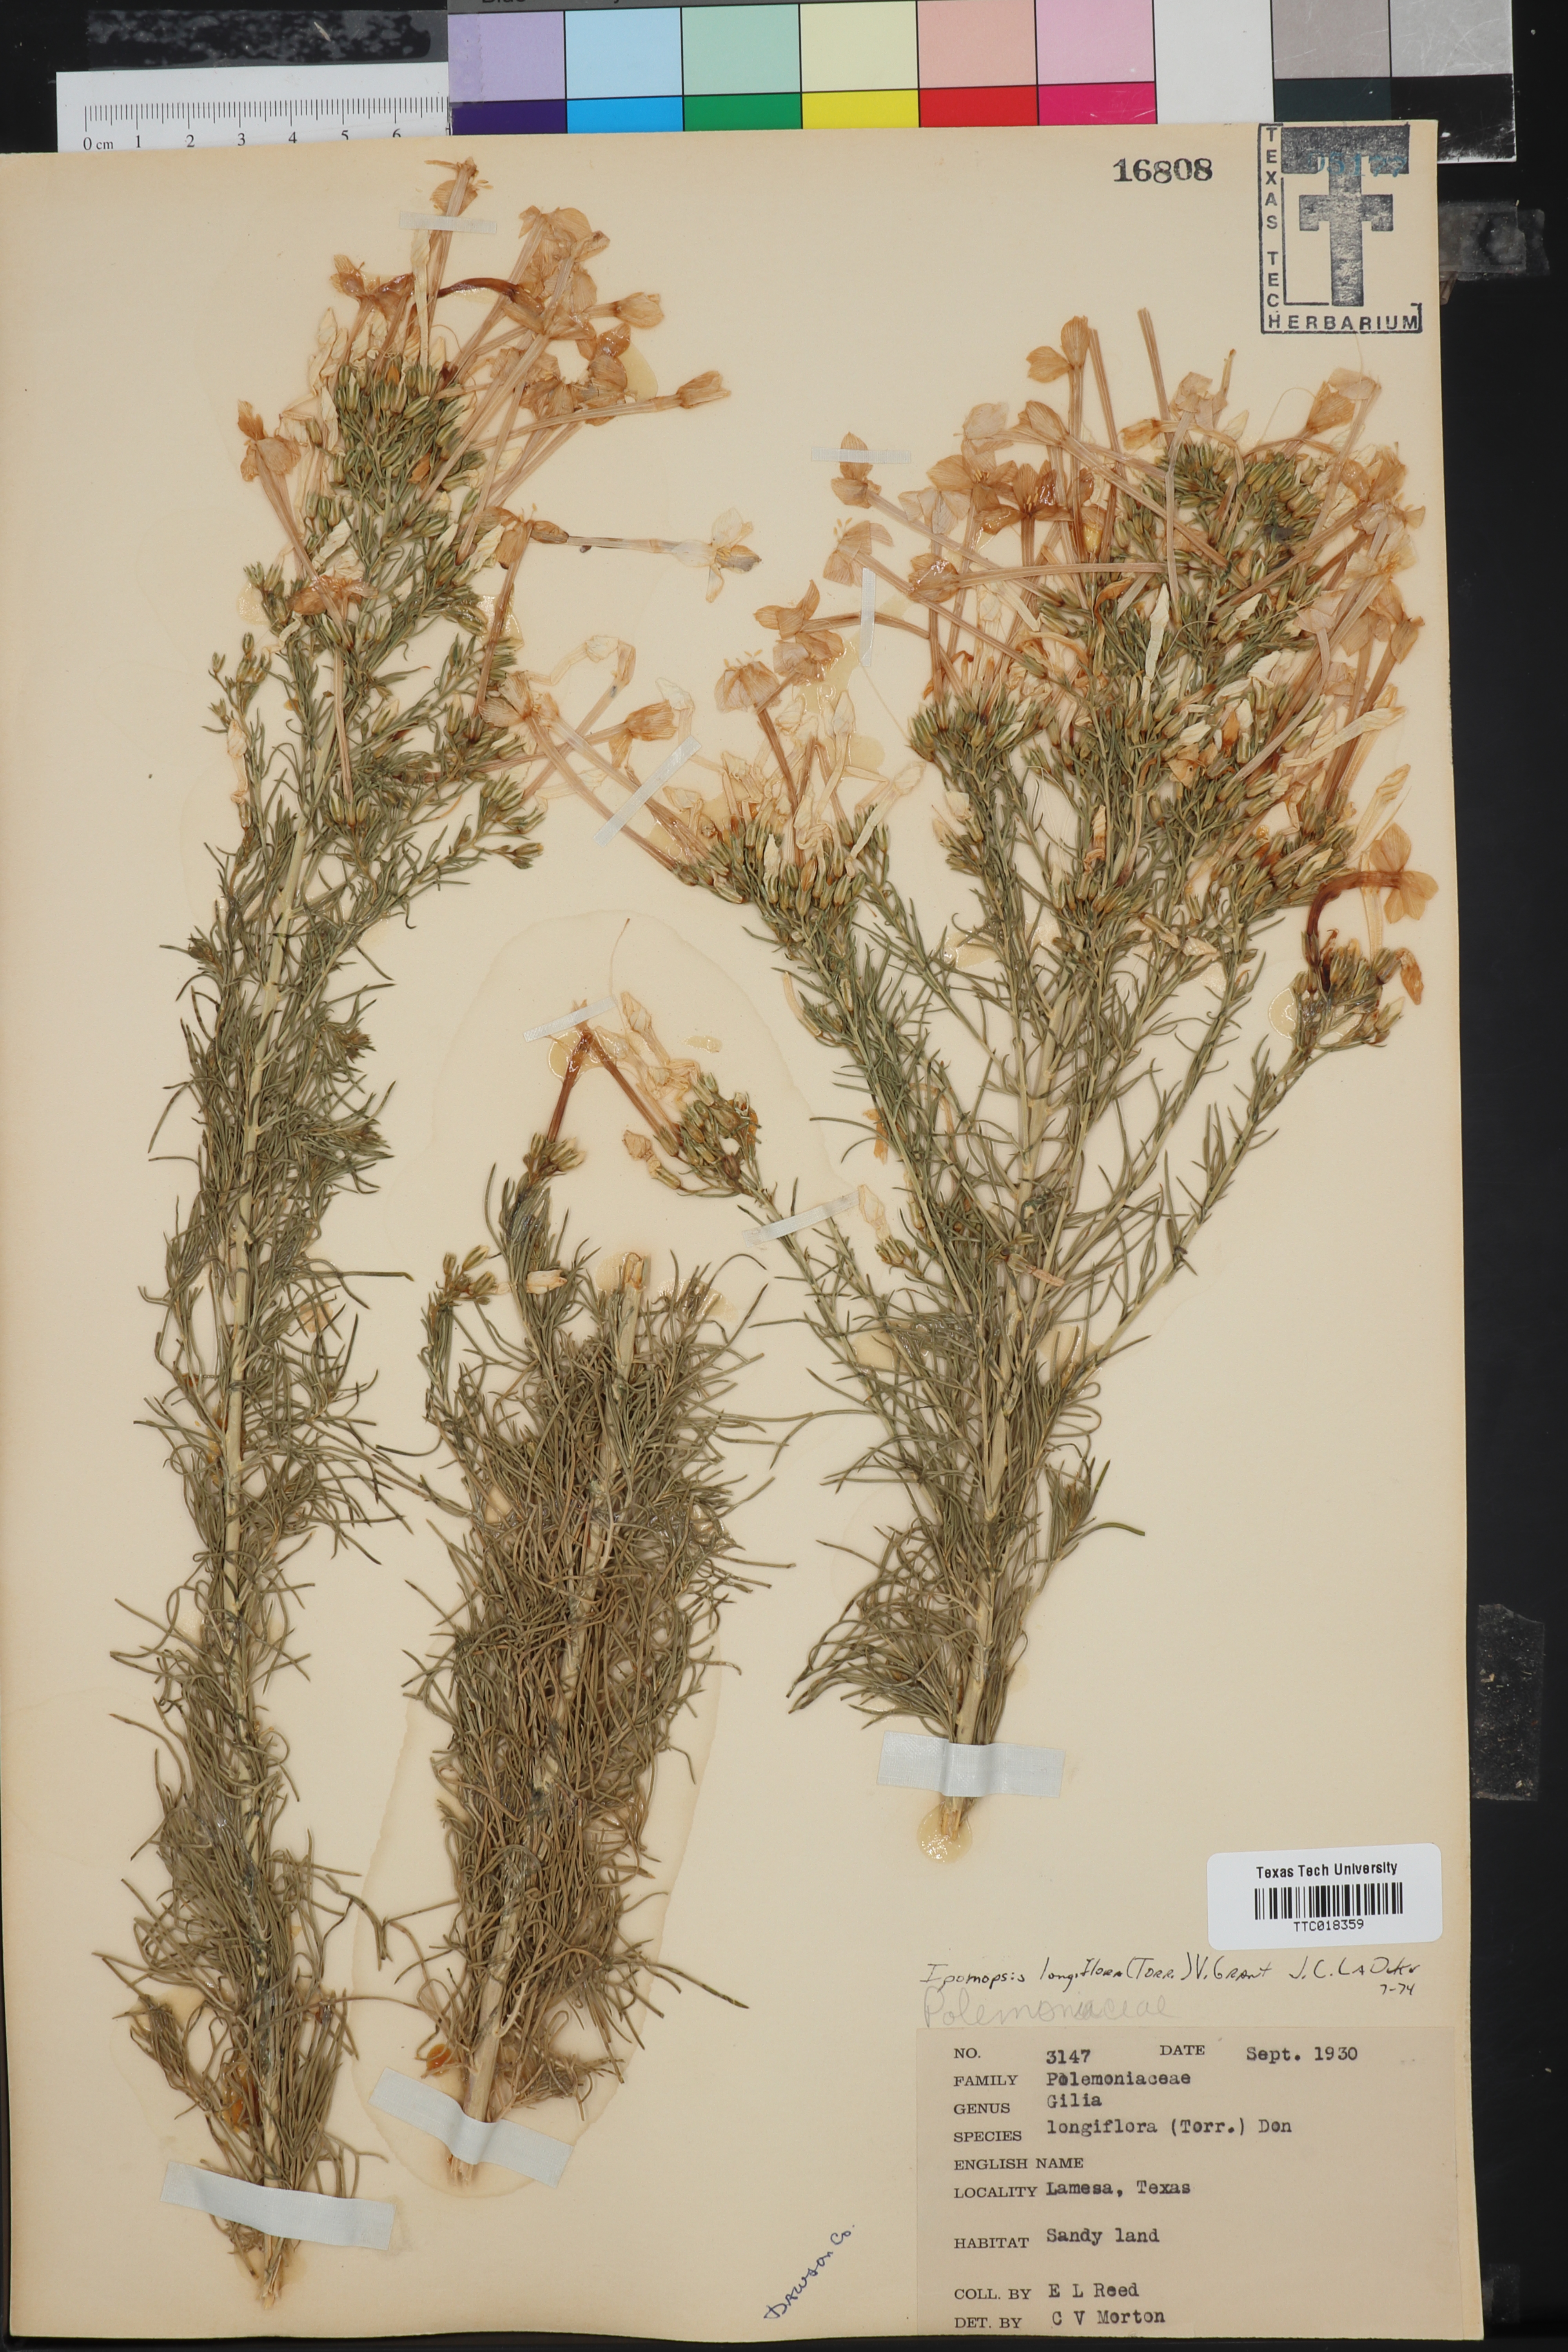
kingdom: Plantae
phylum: Tracheophyta
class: Magnoliopsida
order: Ericales
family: Polemoniaceae
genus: Ipomopsis
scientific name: Ipomopsis longiflora
